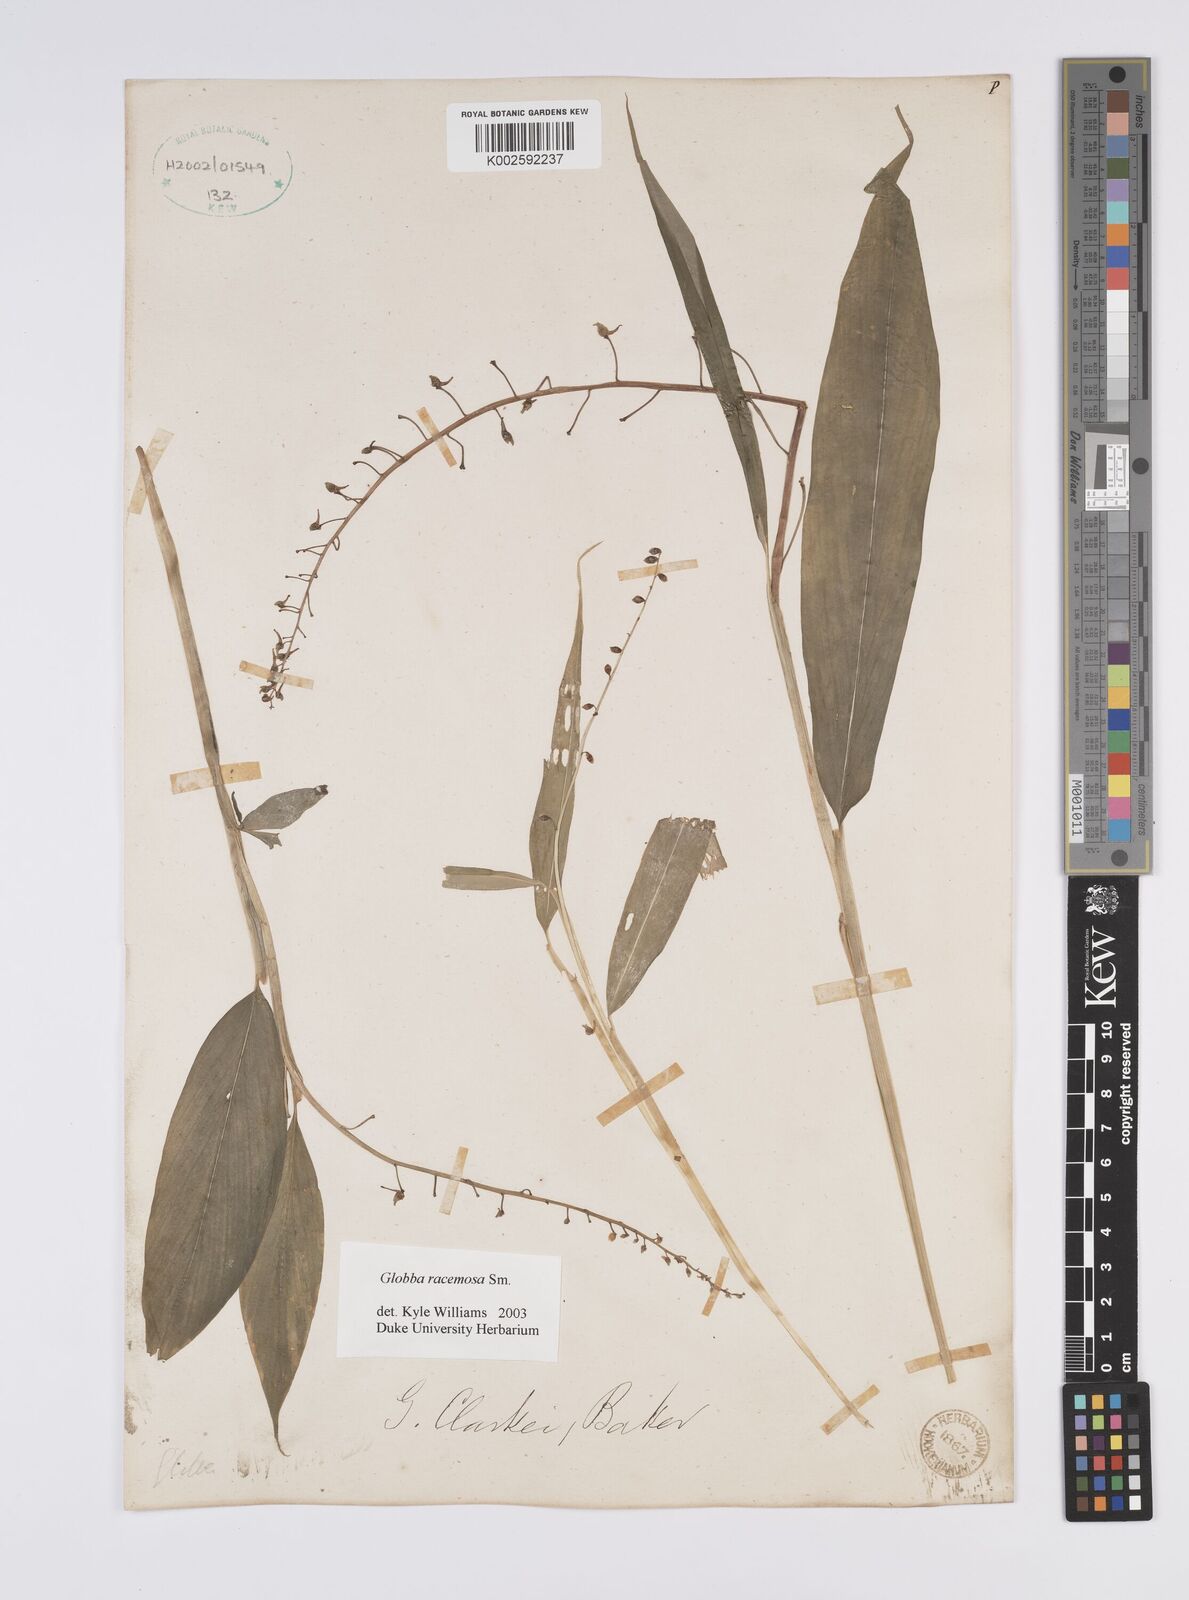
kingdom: Plantae
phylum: Tracheophyta
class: Liliopsida
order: Zingiberales
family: Zingiberaceae
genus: Globba
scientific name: Globba orixensis
